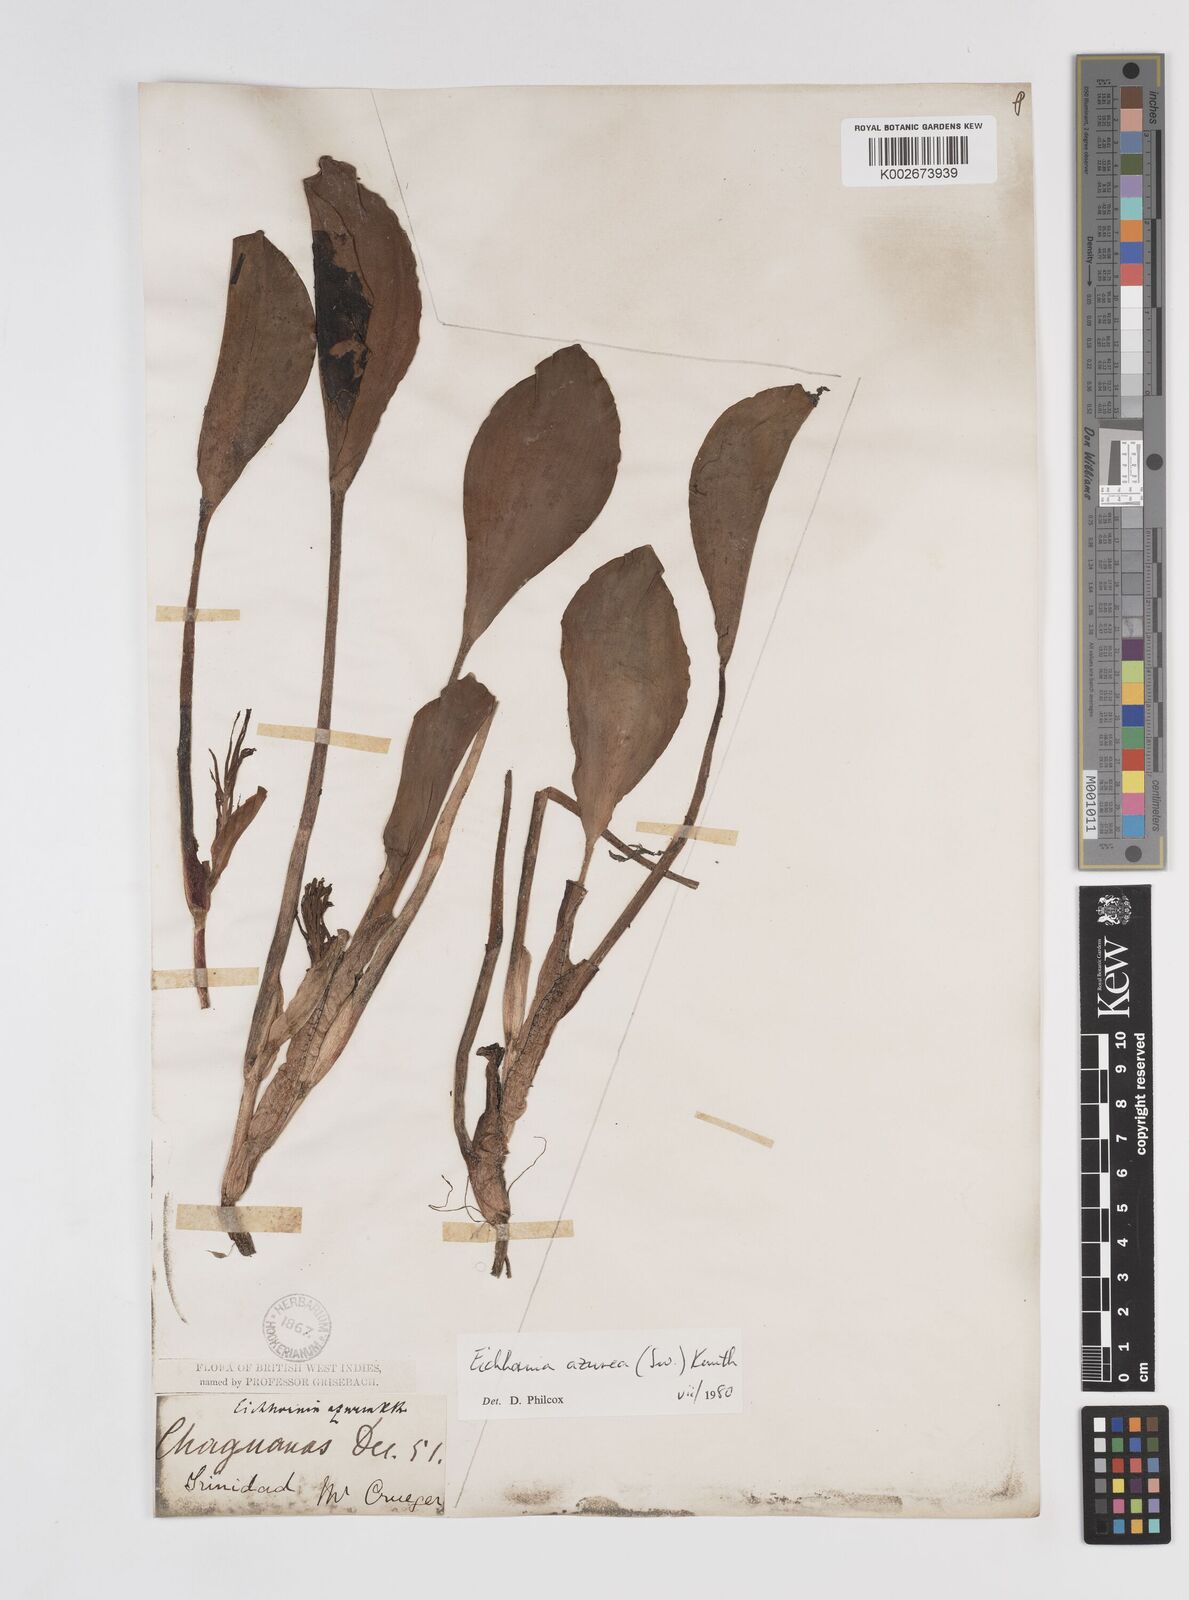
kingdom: Plantae
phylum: Tracheophyta
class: Liliopsida
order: Commelinales
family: Pontederiaceae
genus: Pontederia
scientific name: Pontederia azurea
